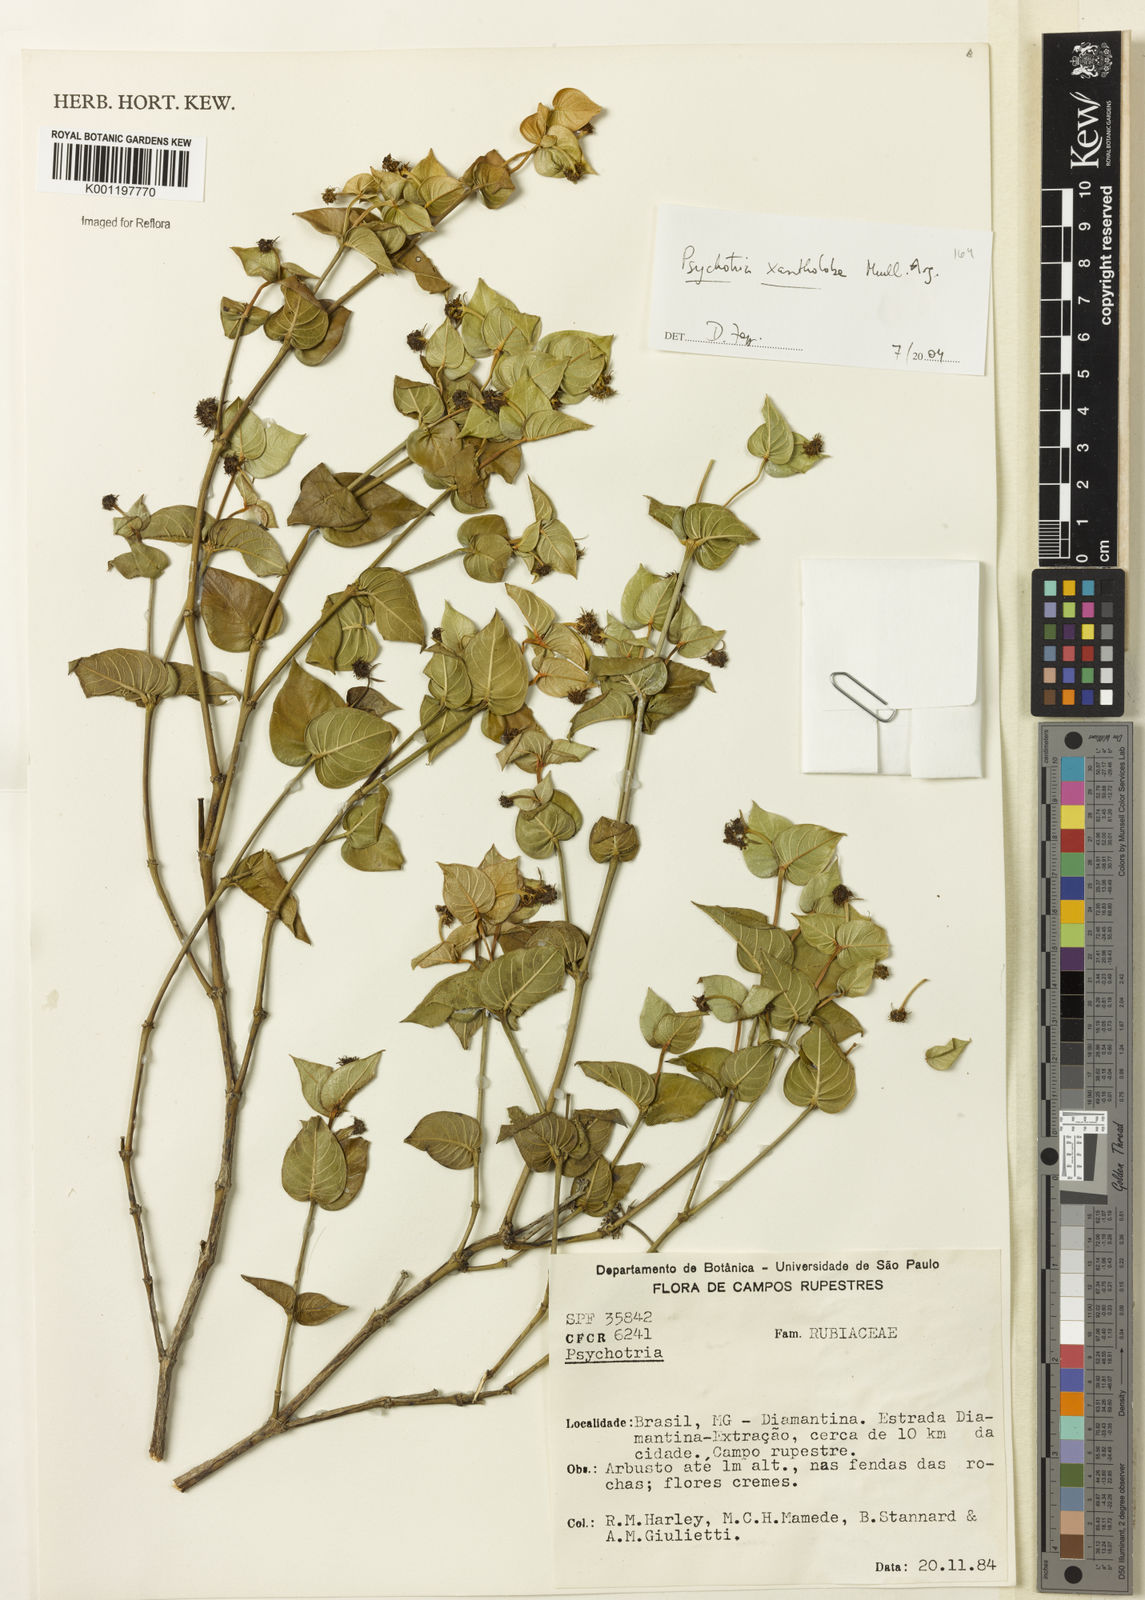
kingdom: Plantae
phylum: Tracheophyta
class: Magnoliopsida
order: Gentianales
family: Rubiaceae
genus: Psychotria
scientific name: Psychotria
